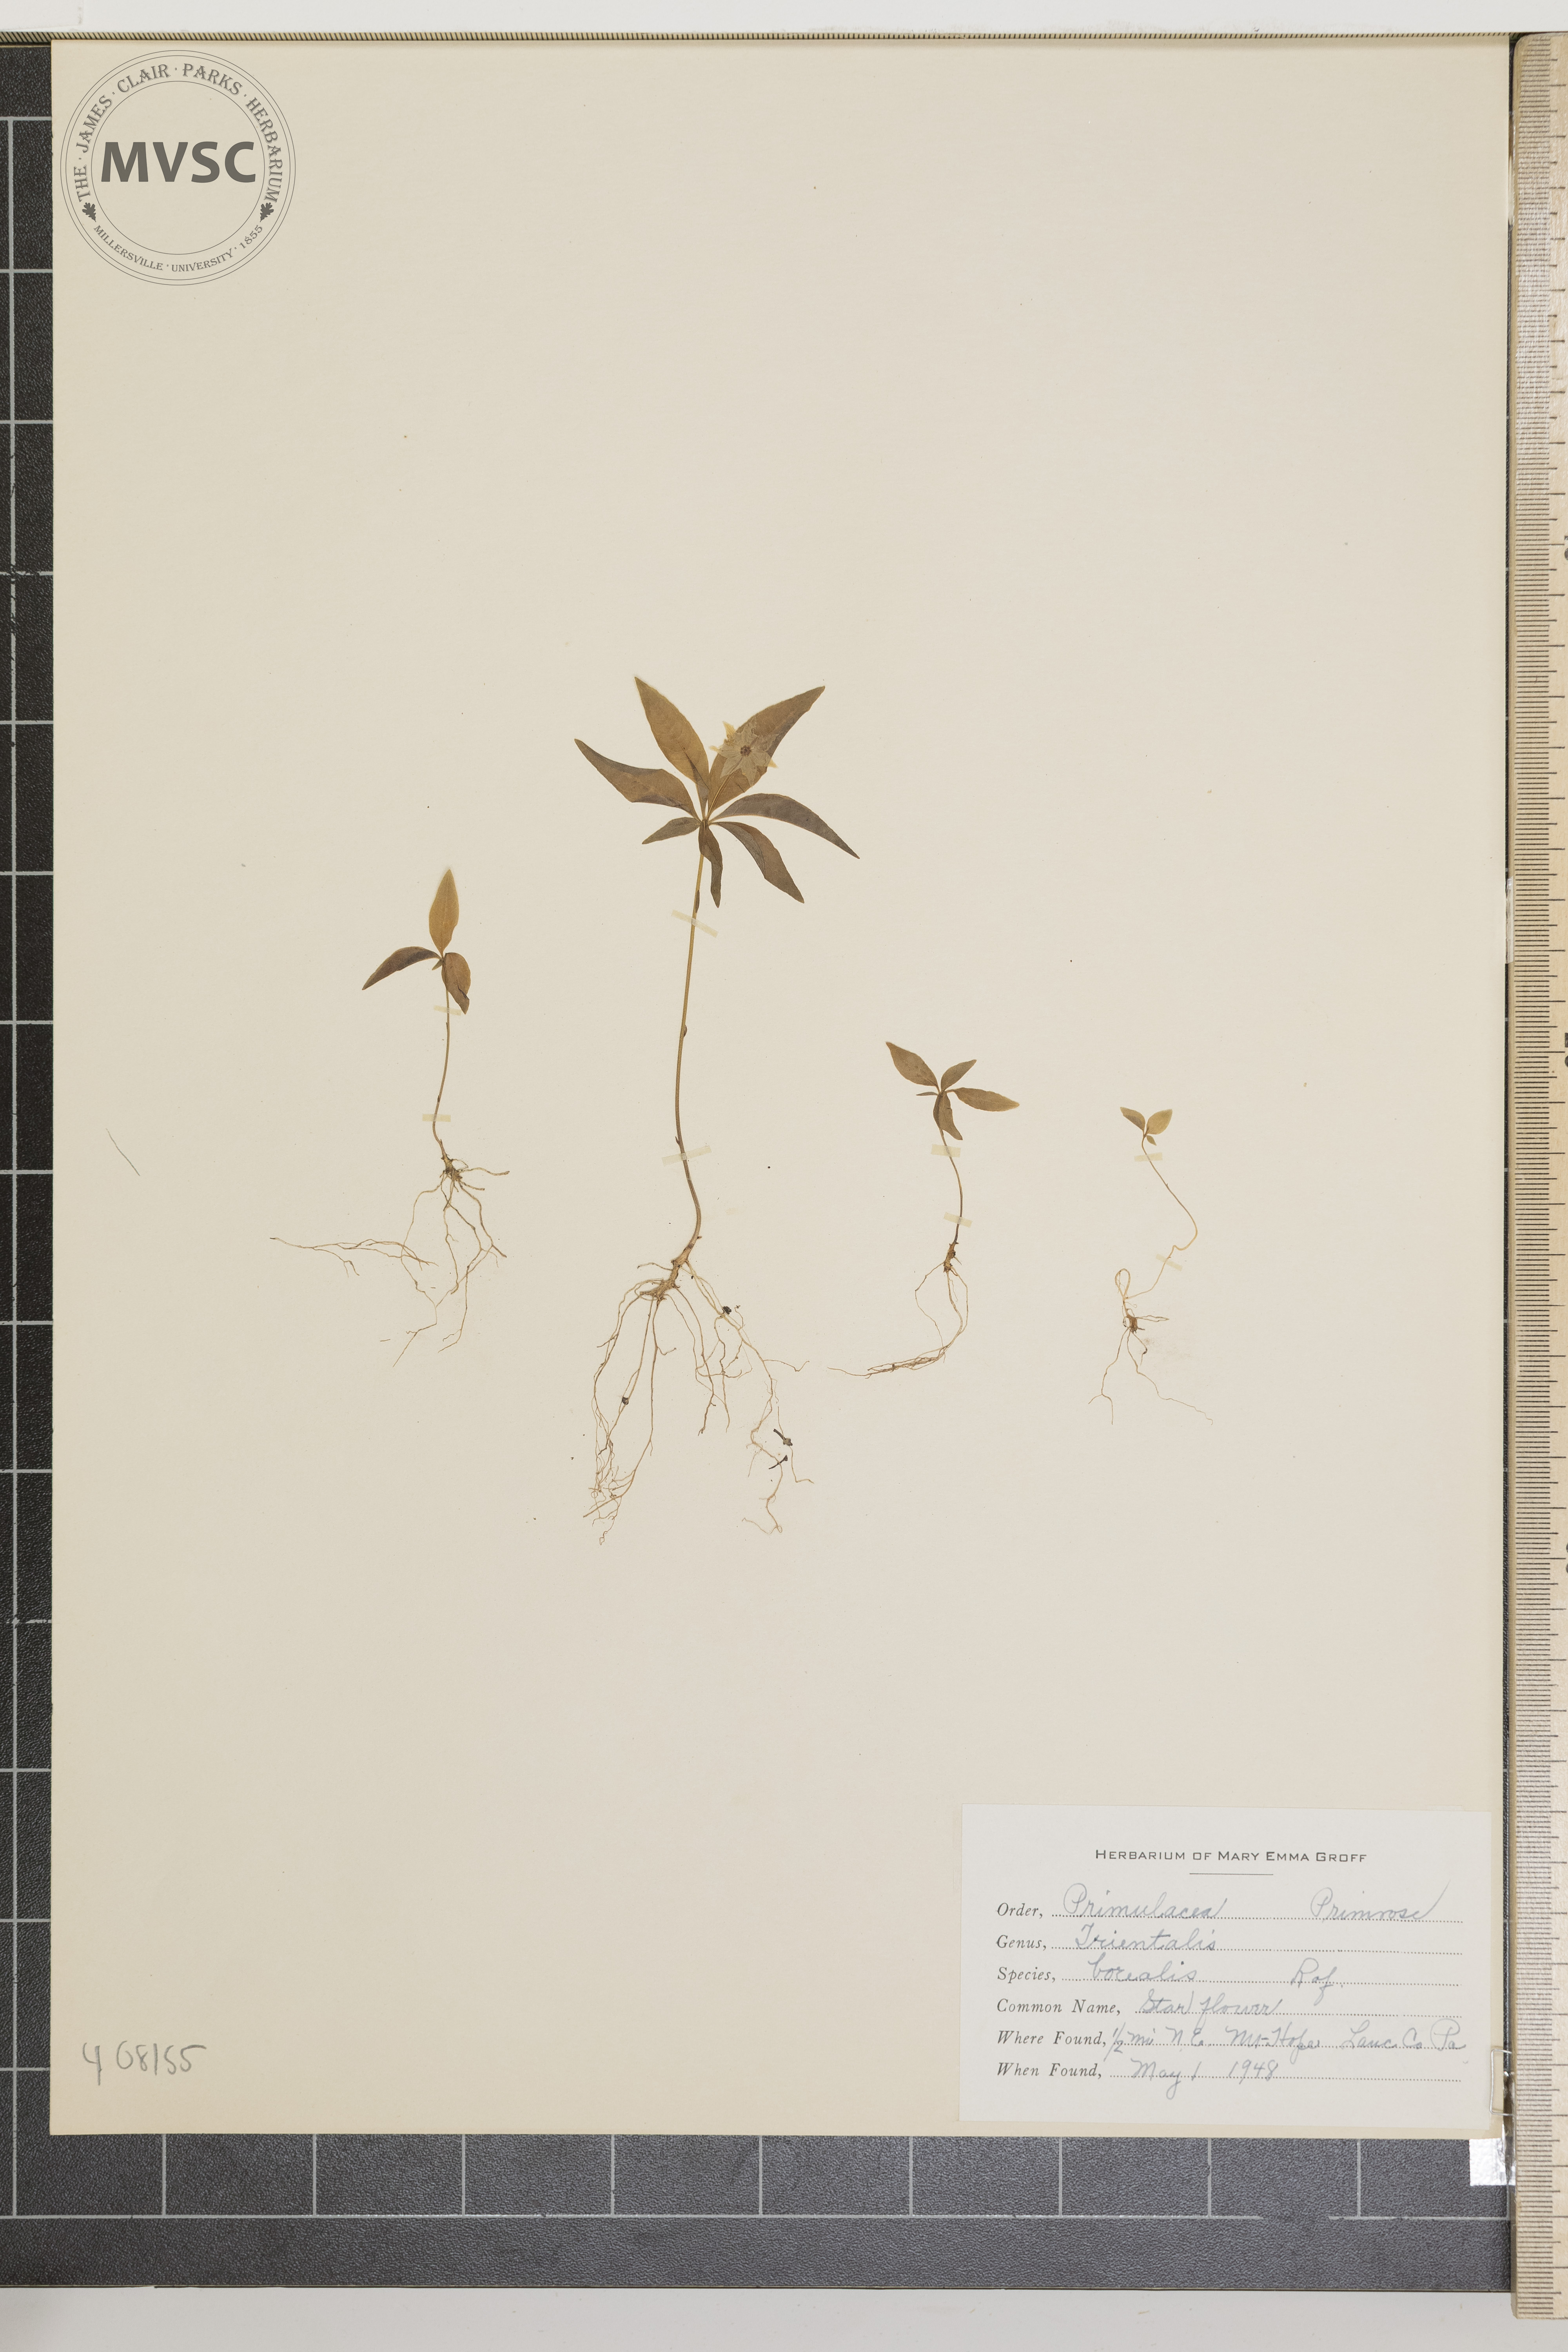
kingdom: Plantae
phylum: Tracheophyta
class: Magnoliopsida
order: Ericales
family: Primulaceae
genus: Lysimachia
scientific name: Lysimachia borealis
